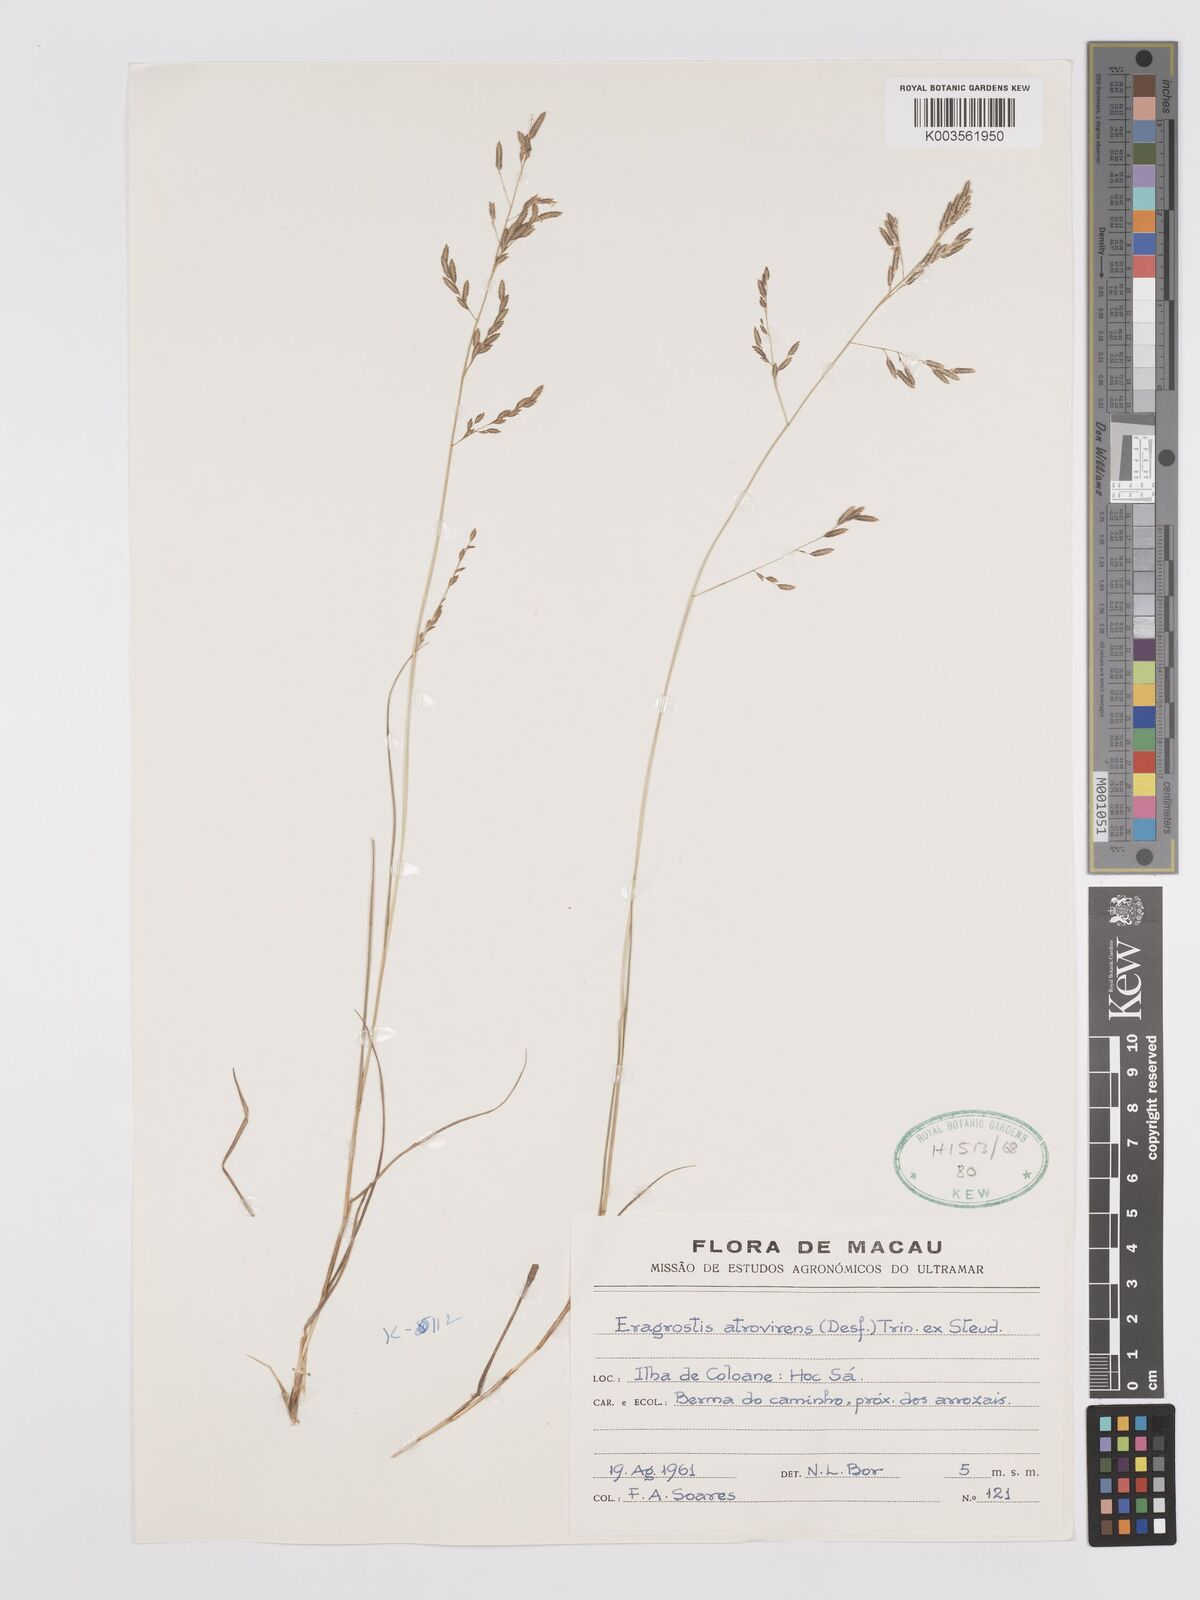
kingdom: Plantae
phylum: Tracheophyta
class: Liliopsida
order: Poales
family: Poaceae
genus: Eragrostis
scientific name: Eragrostis atrovirens
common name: Thalia lovegrass
